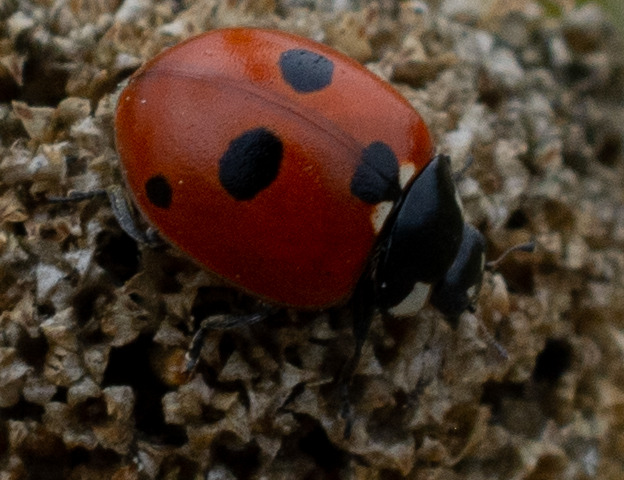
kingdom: Animalia
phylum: Arthropoda
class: Insecta
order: Coleoptera
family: Coccinellidae
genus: Coccinella
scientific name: Coccinella quinquepunctata
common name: Femplettet mariehøne
